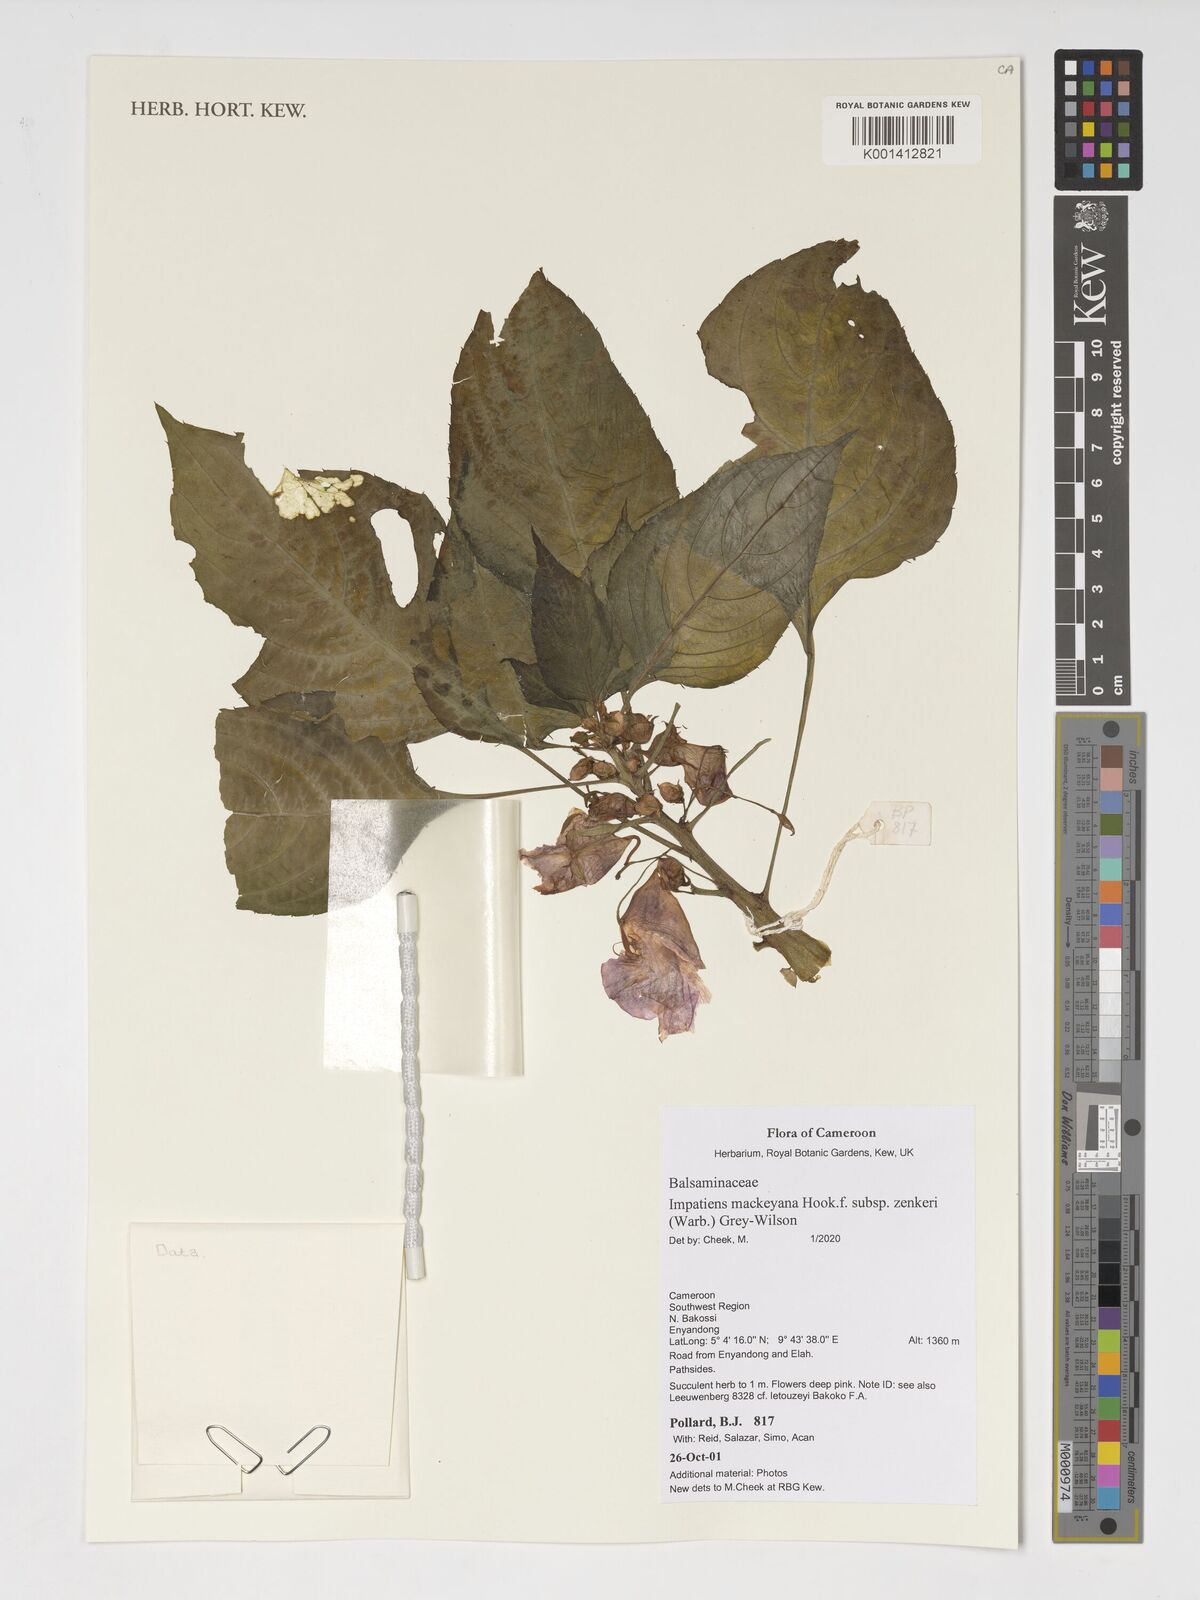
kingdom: Plantae
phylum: Tracheophyta
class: Magnoliopsida
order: Ericales
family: Balsaminaceae
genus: Impatiens
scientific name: Impatiens mackeyana
